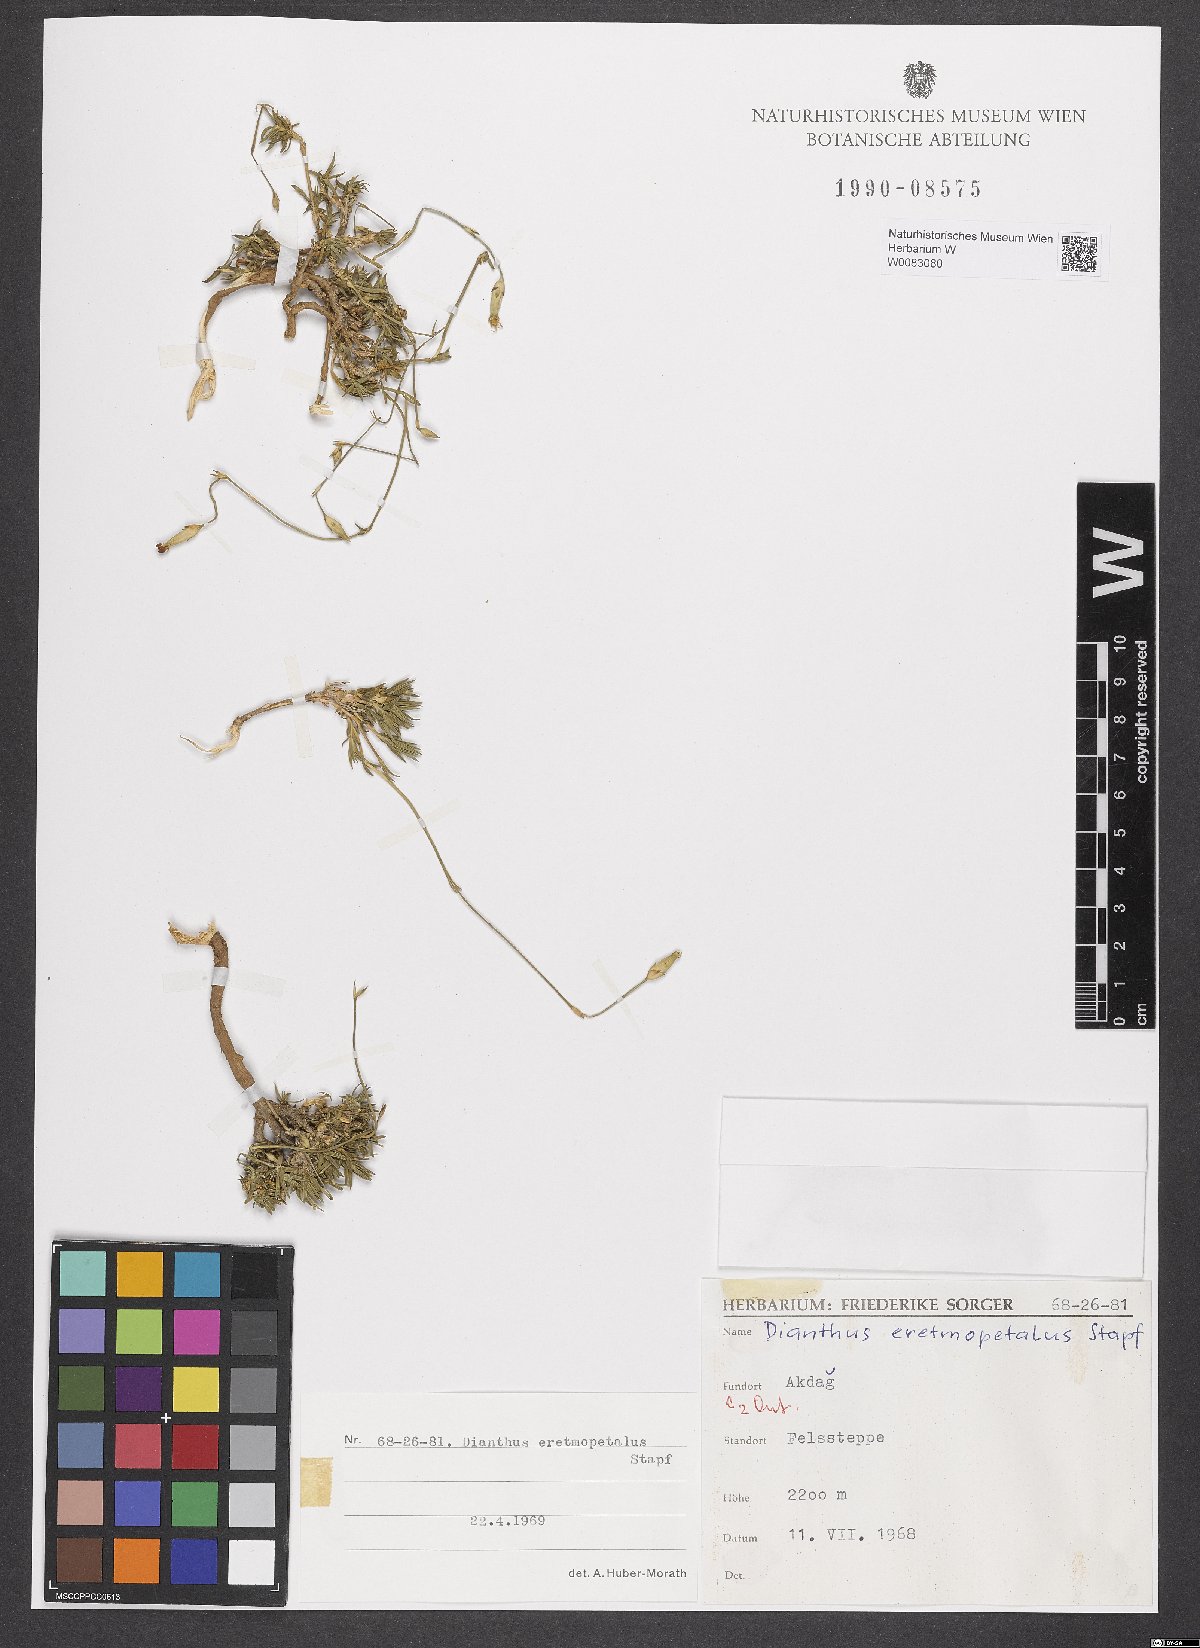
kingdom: Plantae
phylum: Tracheophyta
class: Magnoliopsida
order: Caryophyllales
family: Caryophyllaceae
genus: Dianthus
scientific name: Dianthus eretmopetalus
